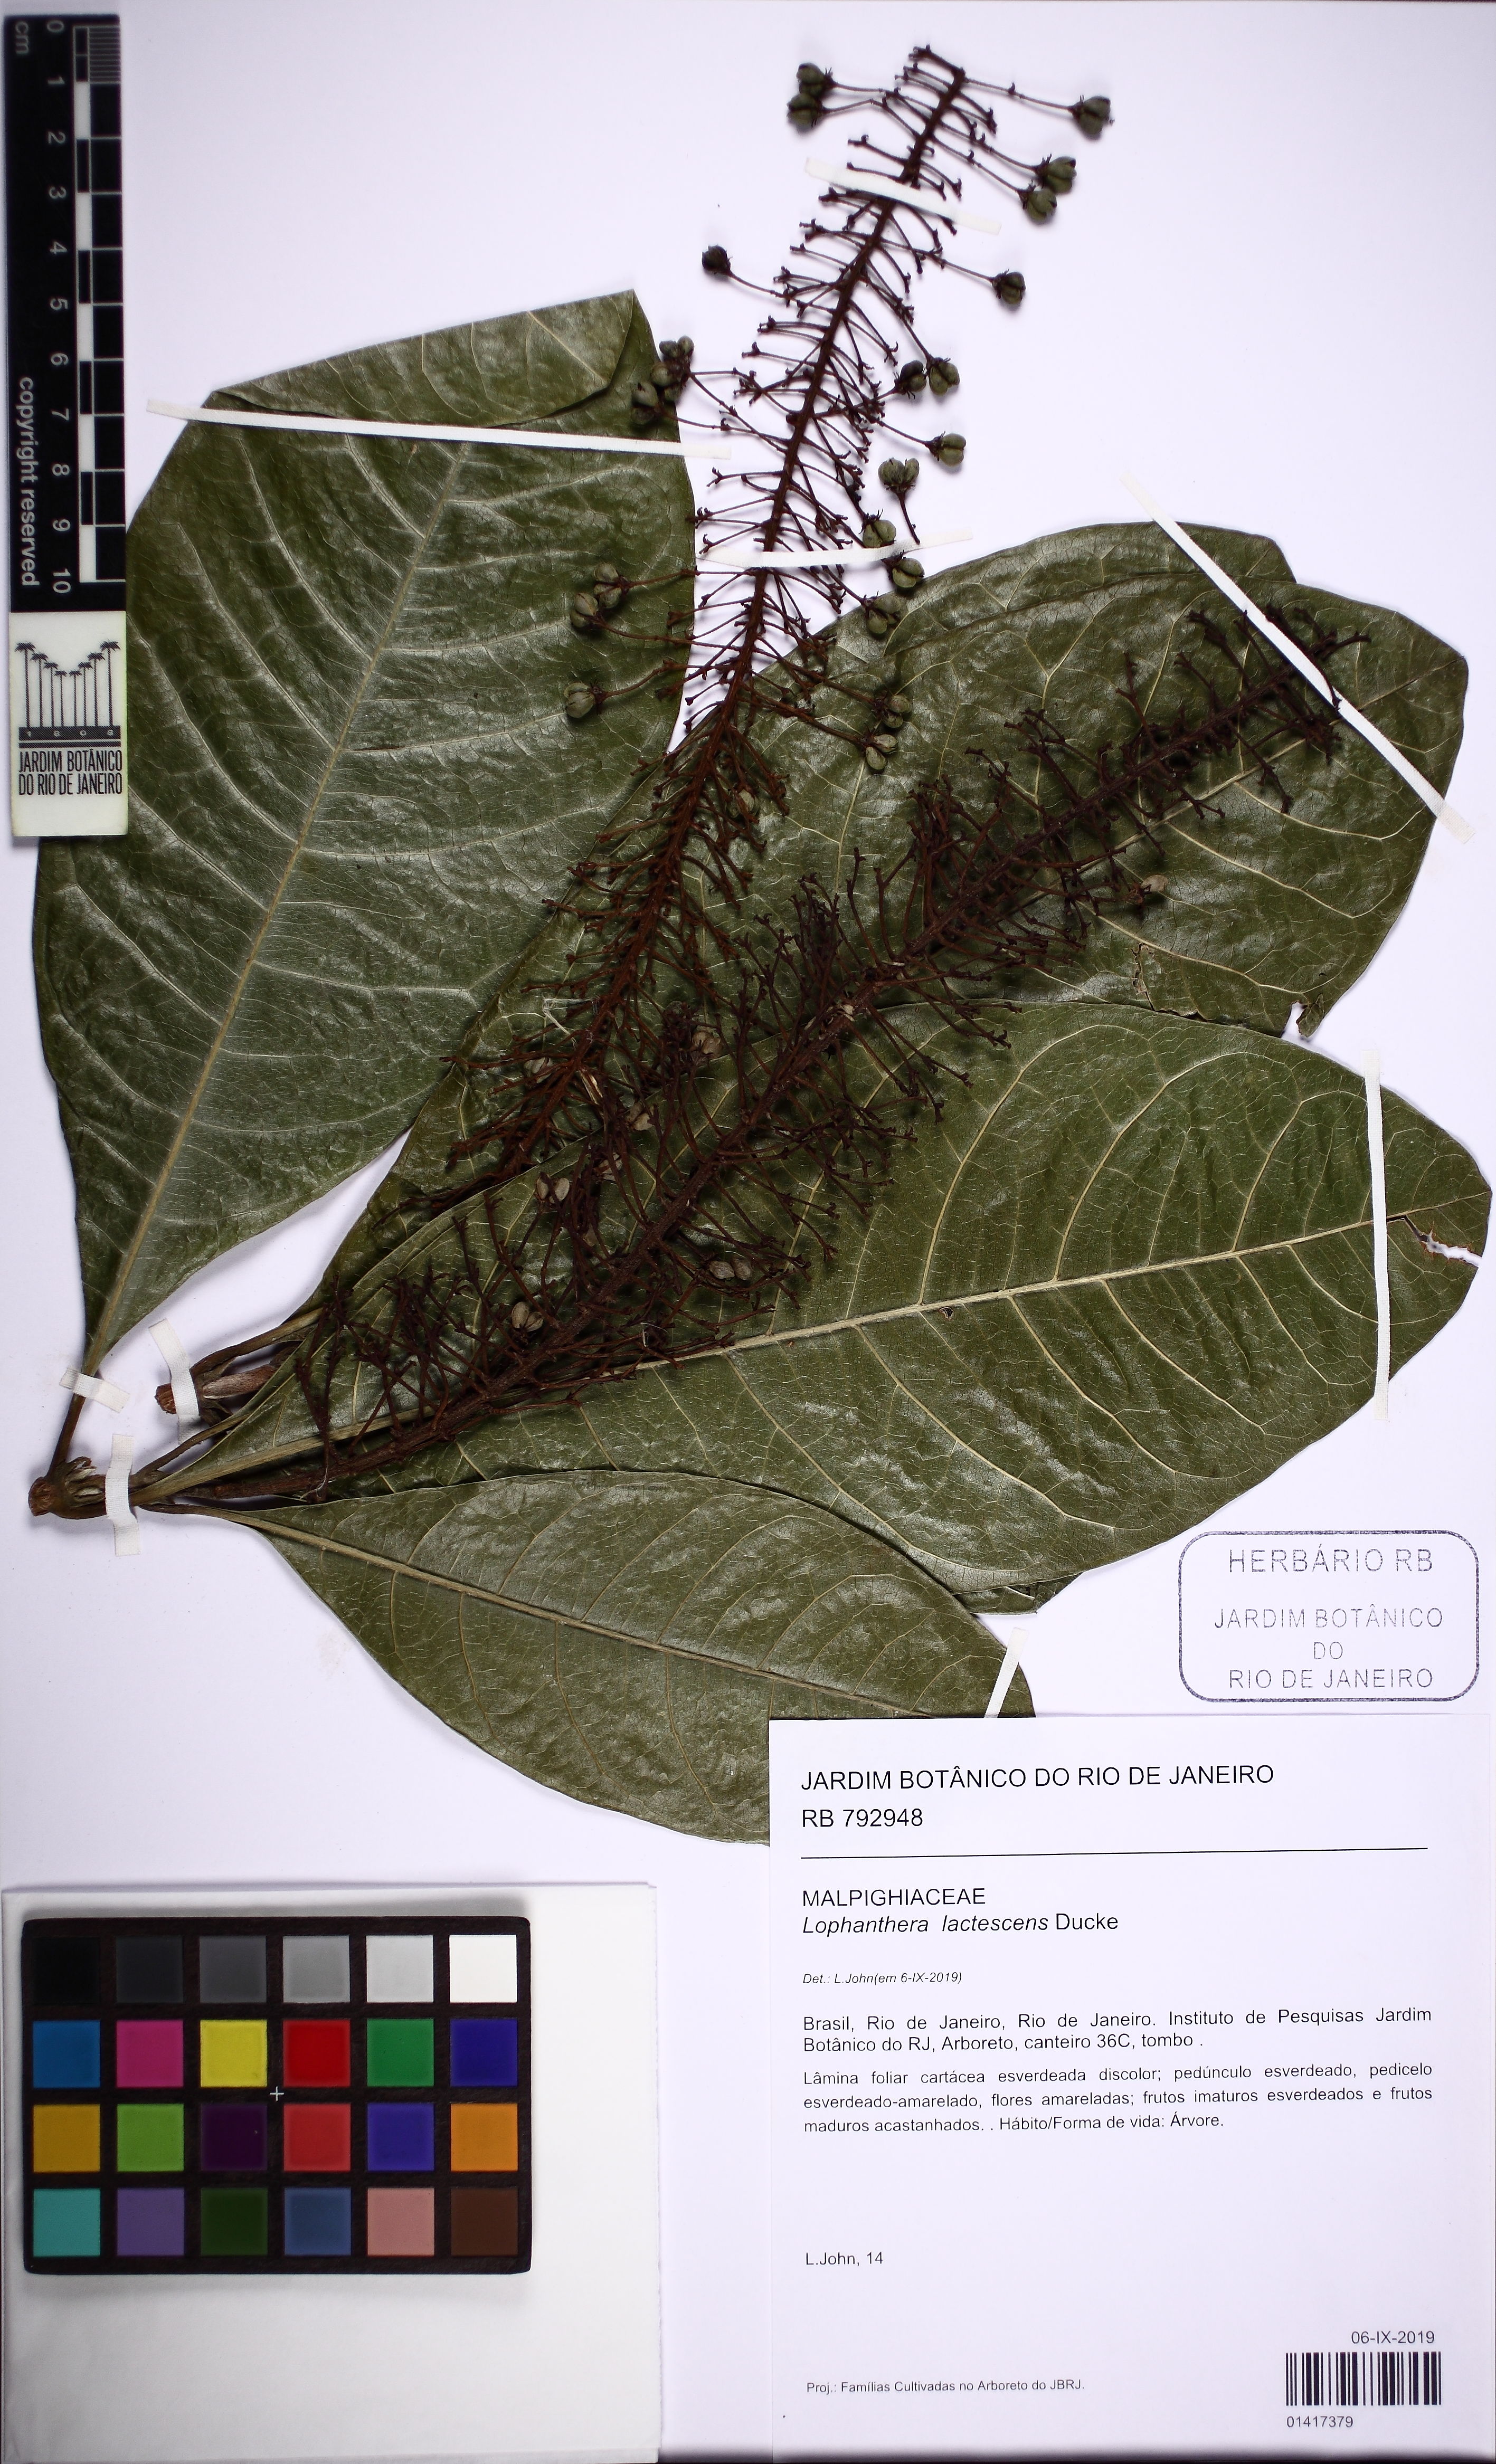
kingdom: Plantae
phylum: Tracheophyta
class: Magnoliopsida
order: Malpighiales
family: Malpighiaceae
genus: Lophanthera
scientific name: Lophanthera lactescens
